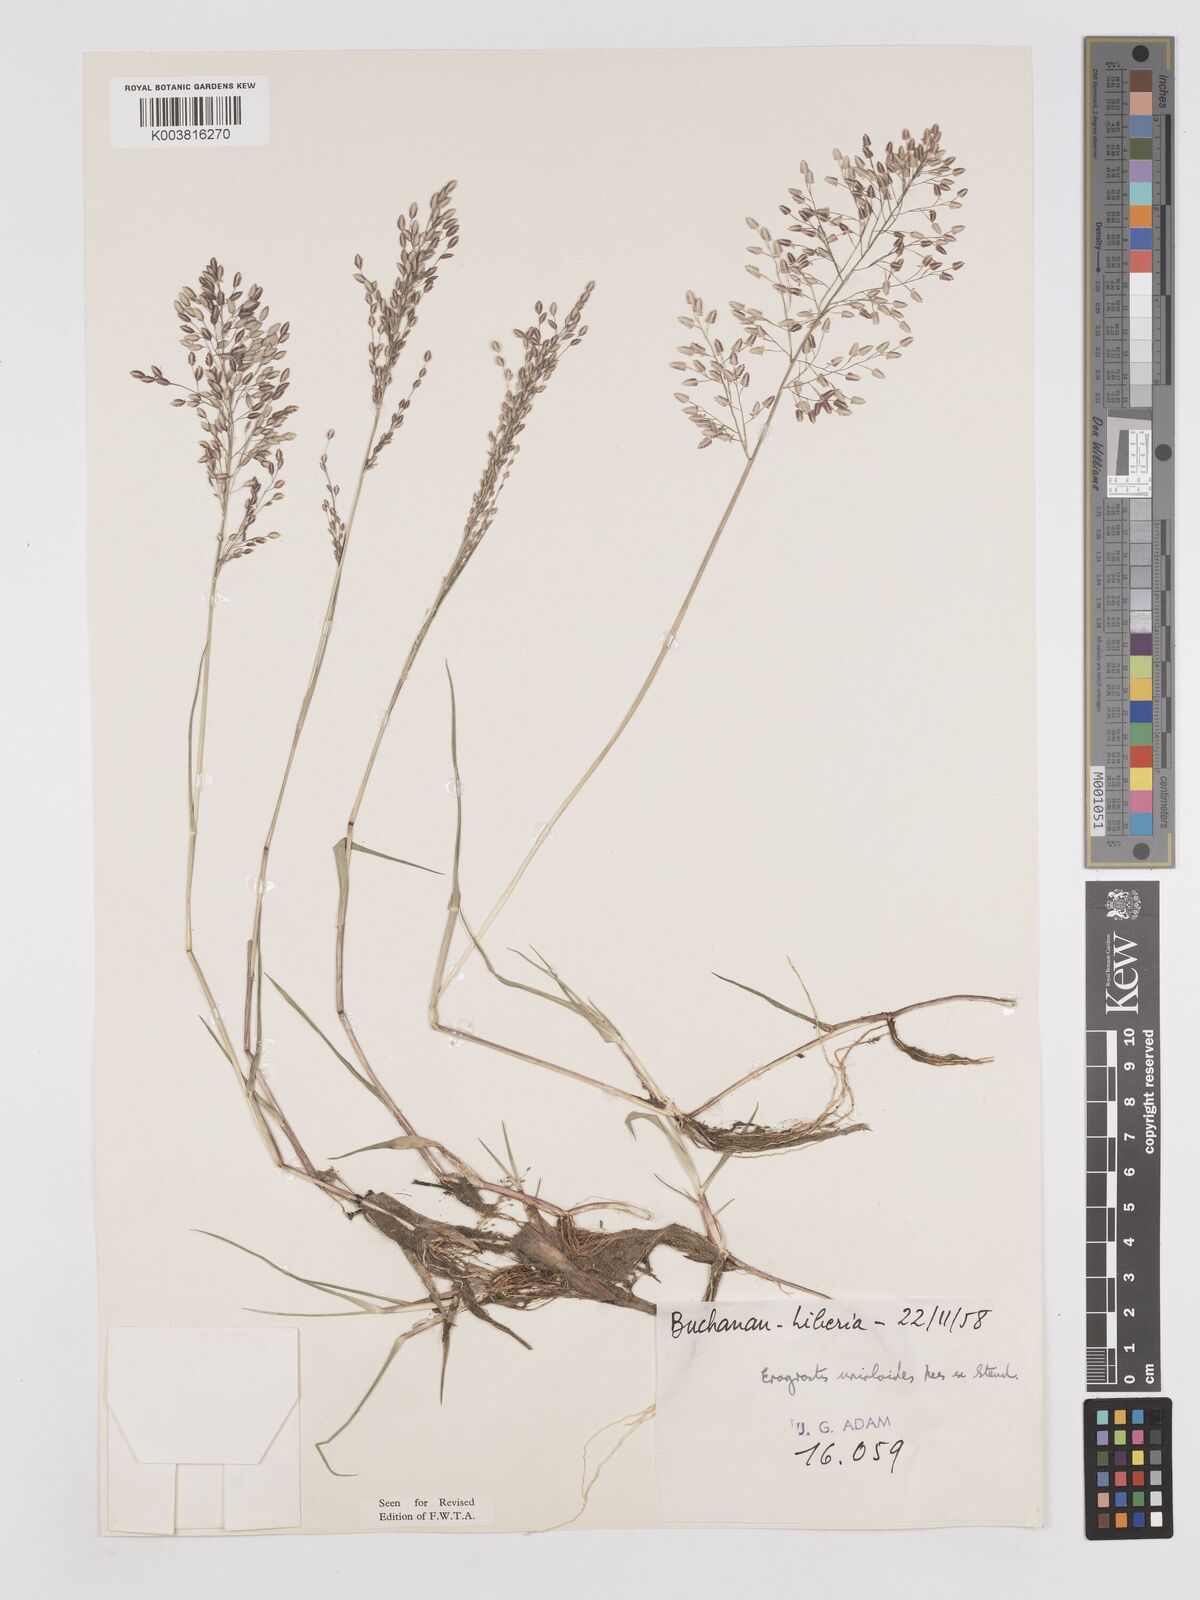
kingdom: Plantae
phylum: Tracheophyta
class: Liliopsida
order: Poales
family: Poaceae
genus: Eragrostis
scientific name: Eragrostis unioloides
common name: Chinese lovegrass
